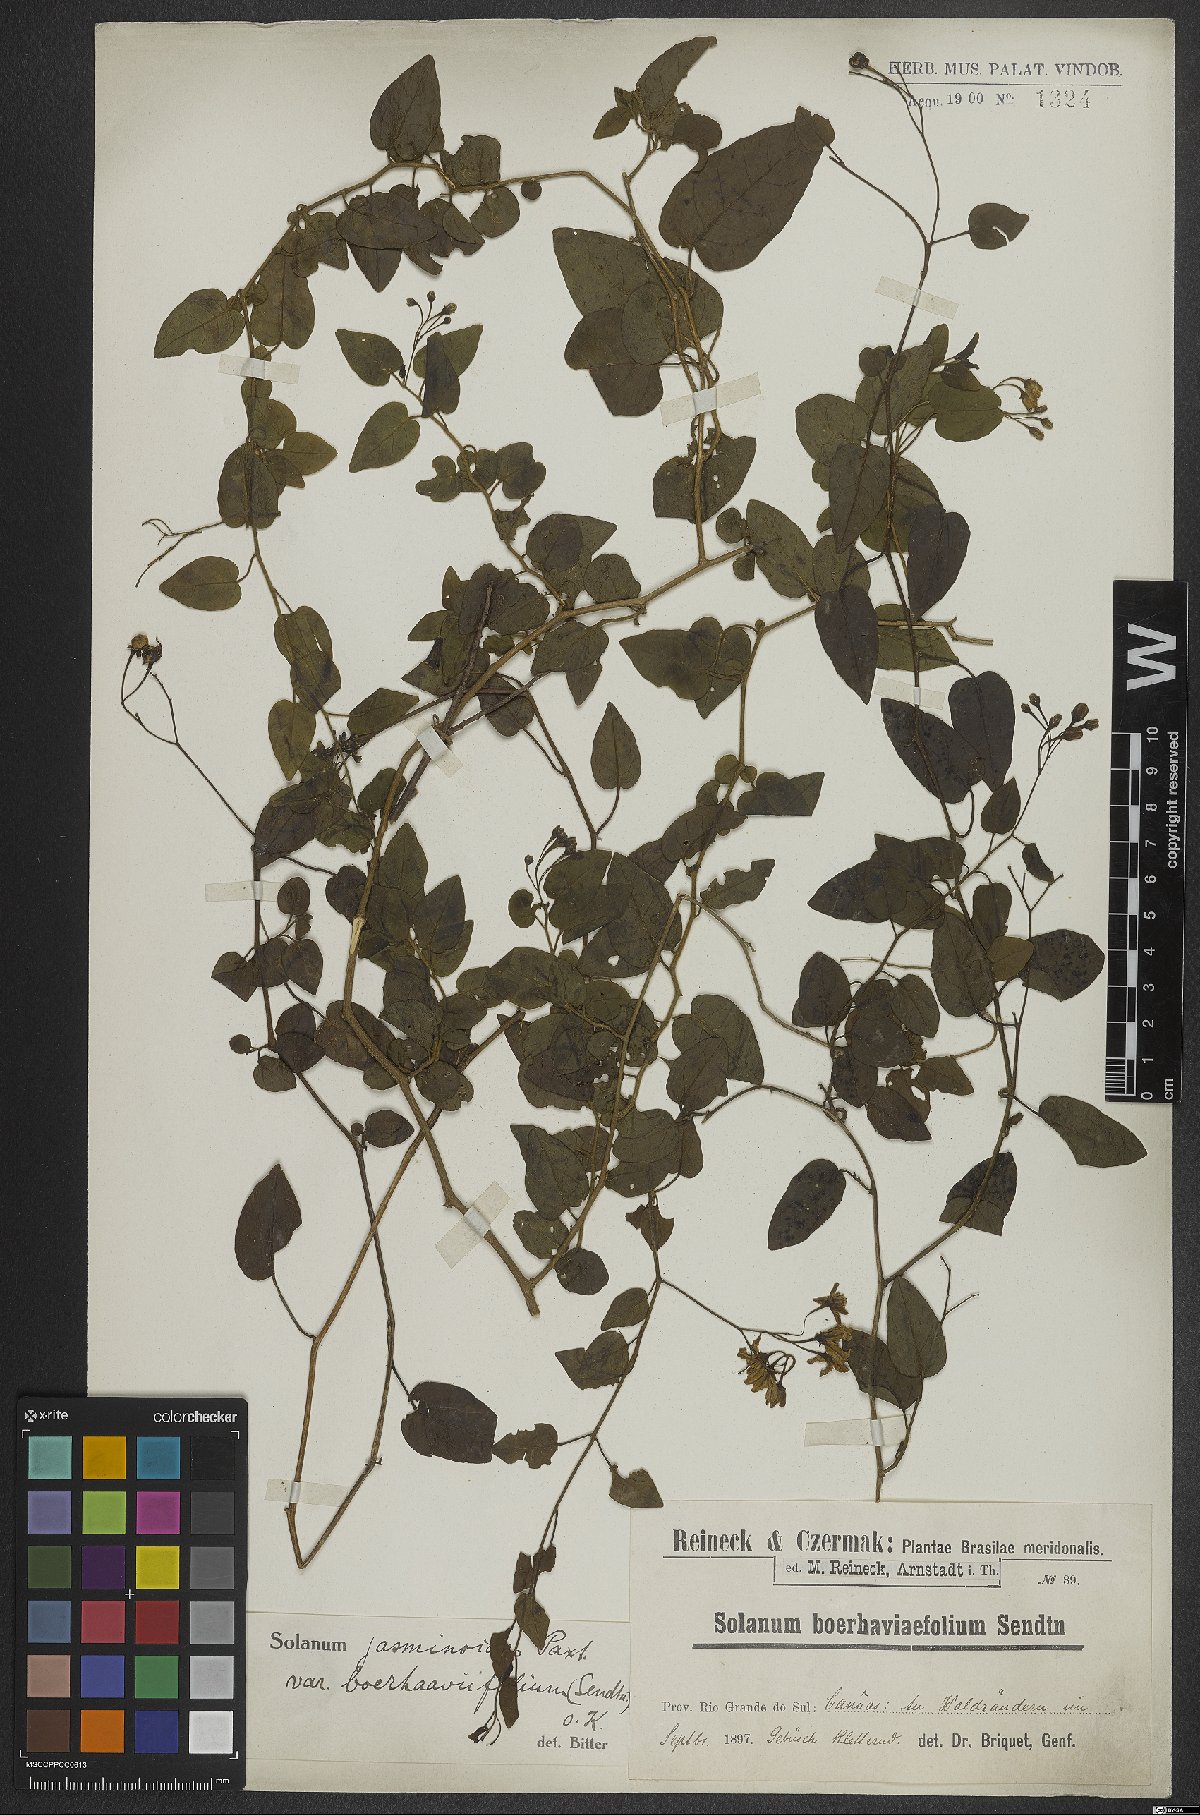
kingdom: Plantae
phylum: Tracheophyta
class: Magnoliopsida
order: Solanales
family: Solanaceae
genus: Solanum
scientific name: Solanum laxum
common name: Nightshade
